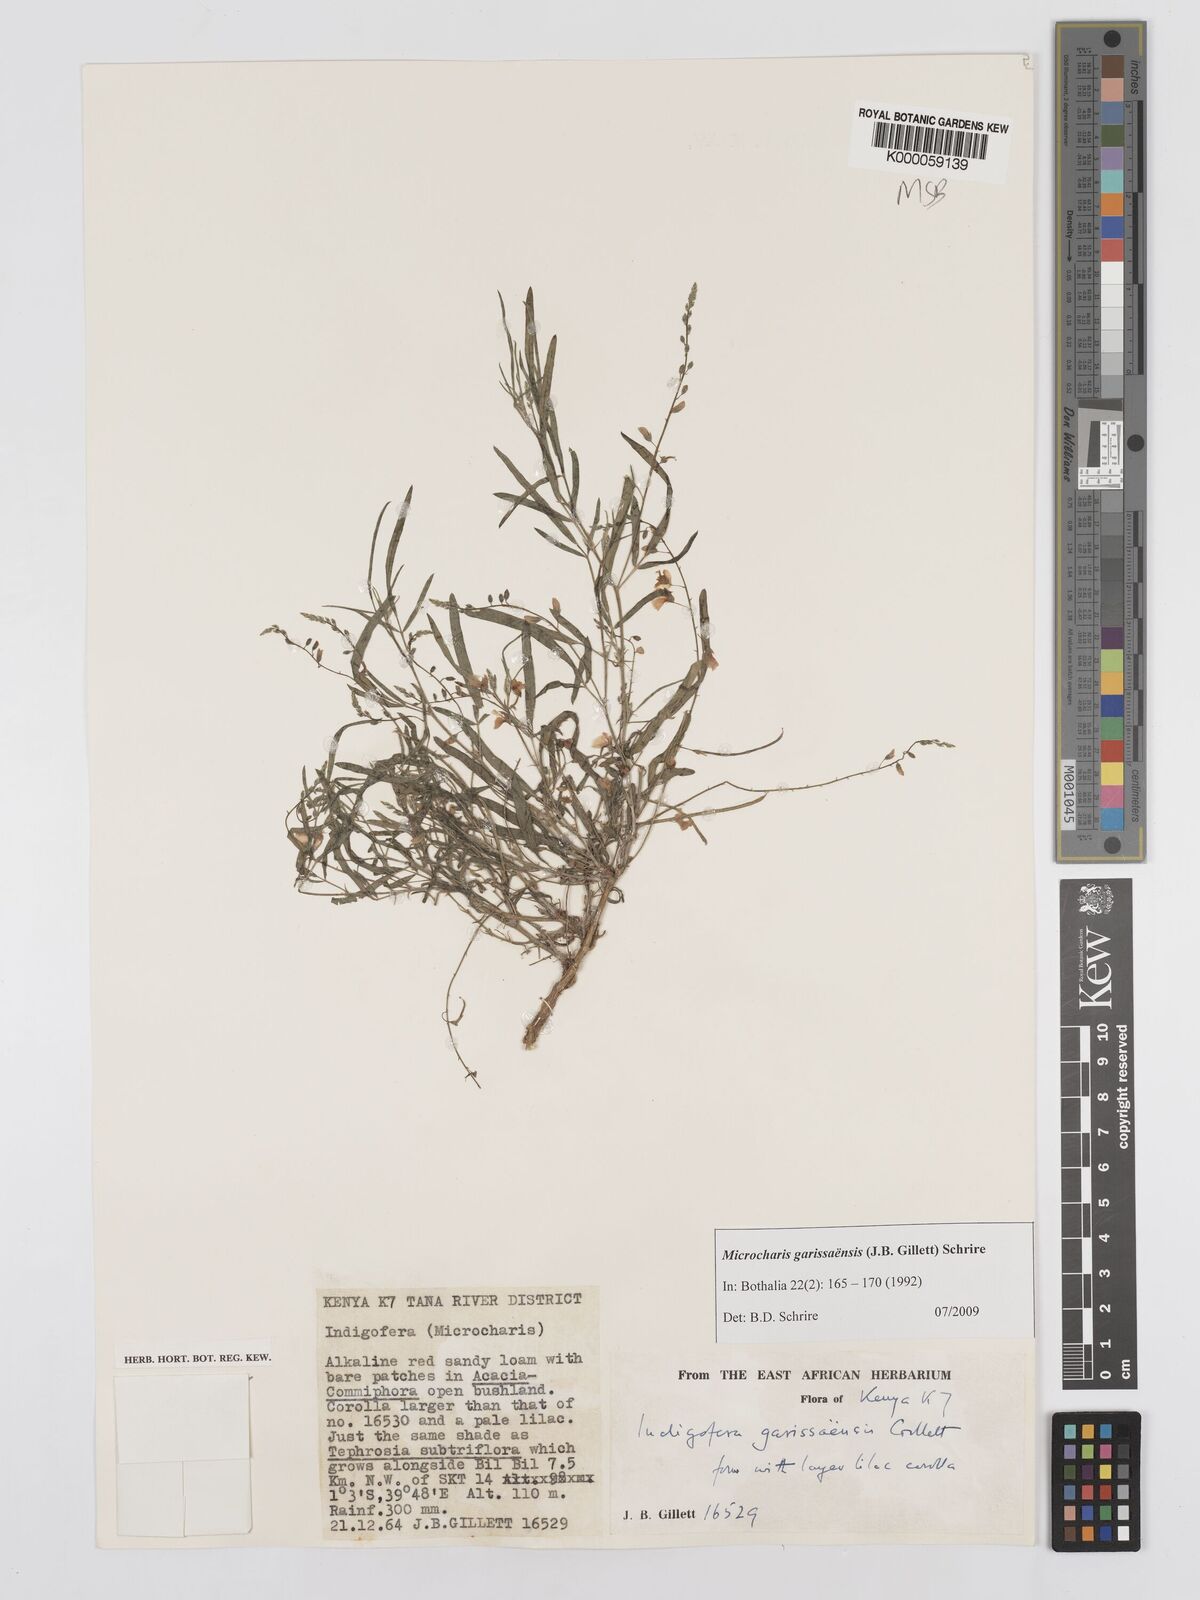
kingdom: Plantae
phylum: Tracheophyta
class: Magnoliopsida
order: Fabales
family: Fabaceae
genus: Microcharis
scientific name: Microcharis garissaensis
